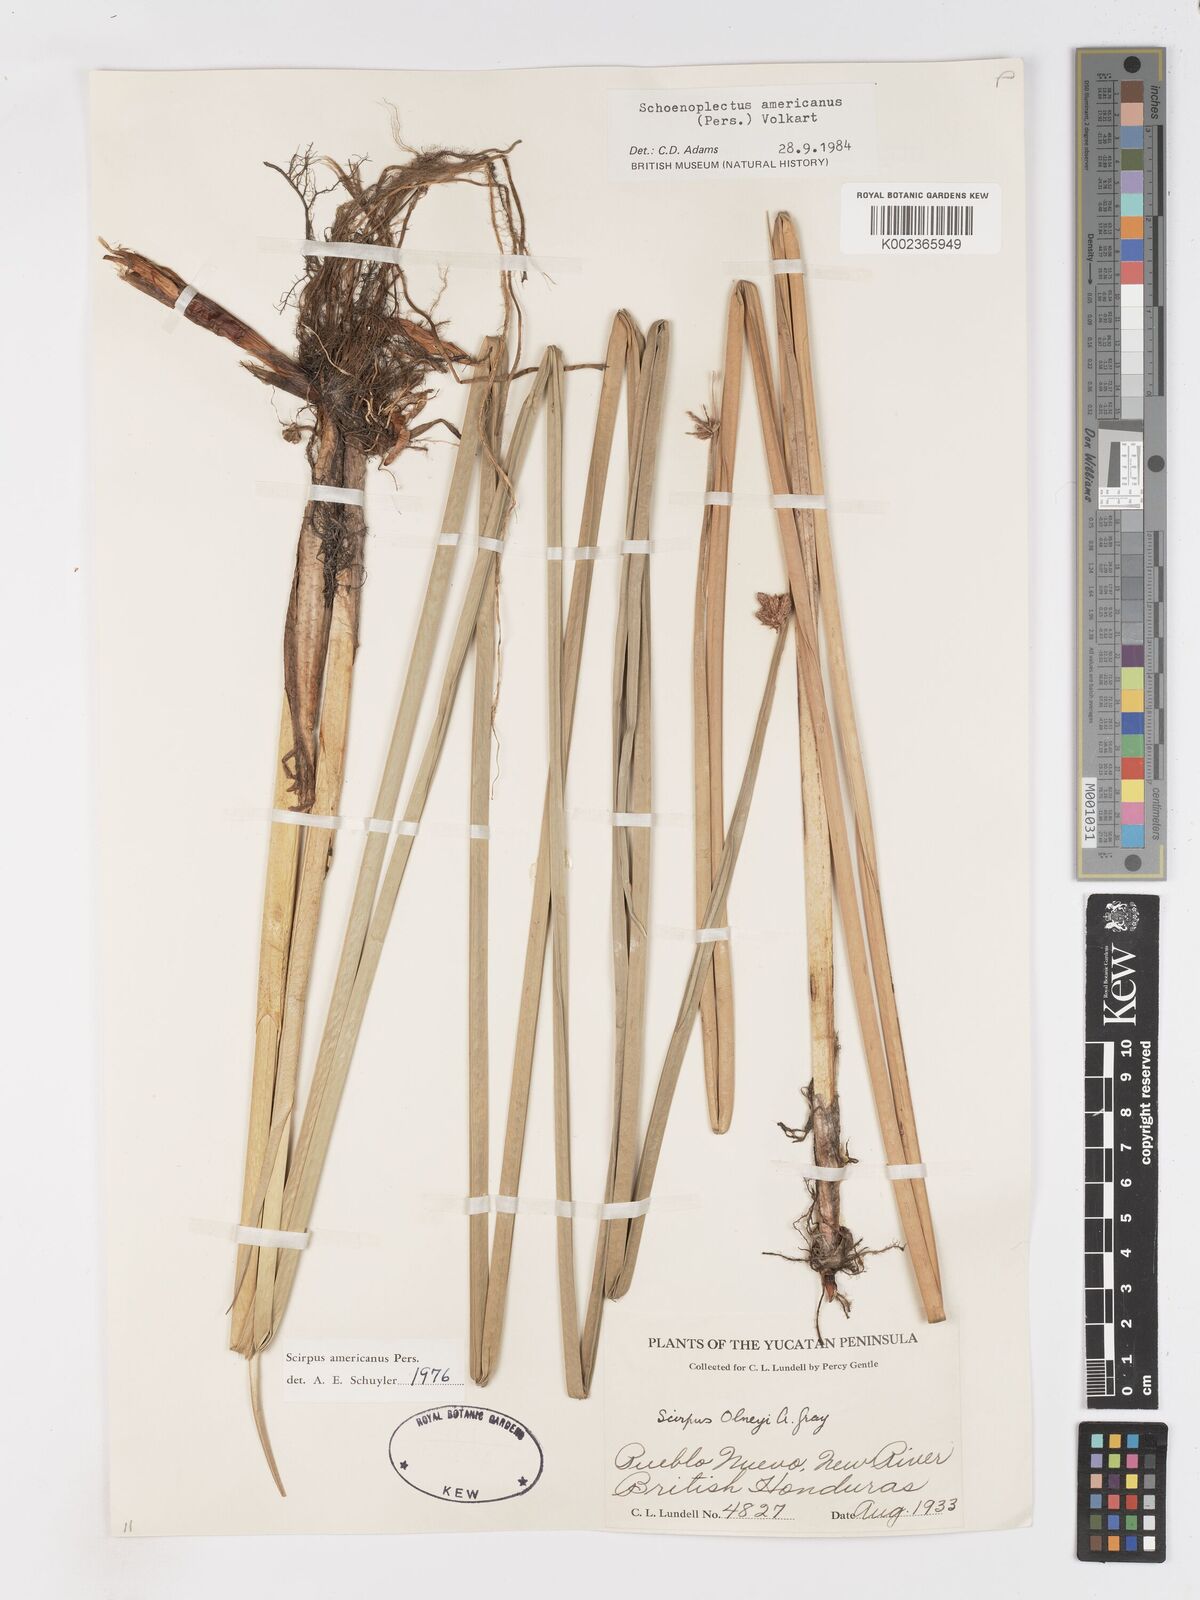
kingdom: Plantae
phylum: Tracheophyta
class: Liliopsida
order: Poales
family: Cyperaceae
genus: Schoenoplectus
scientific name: Schoenoplectus americanus
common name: American three-square bulrush
